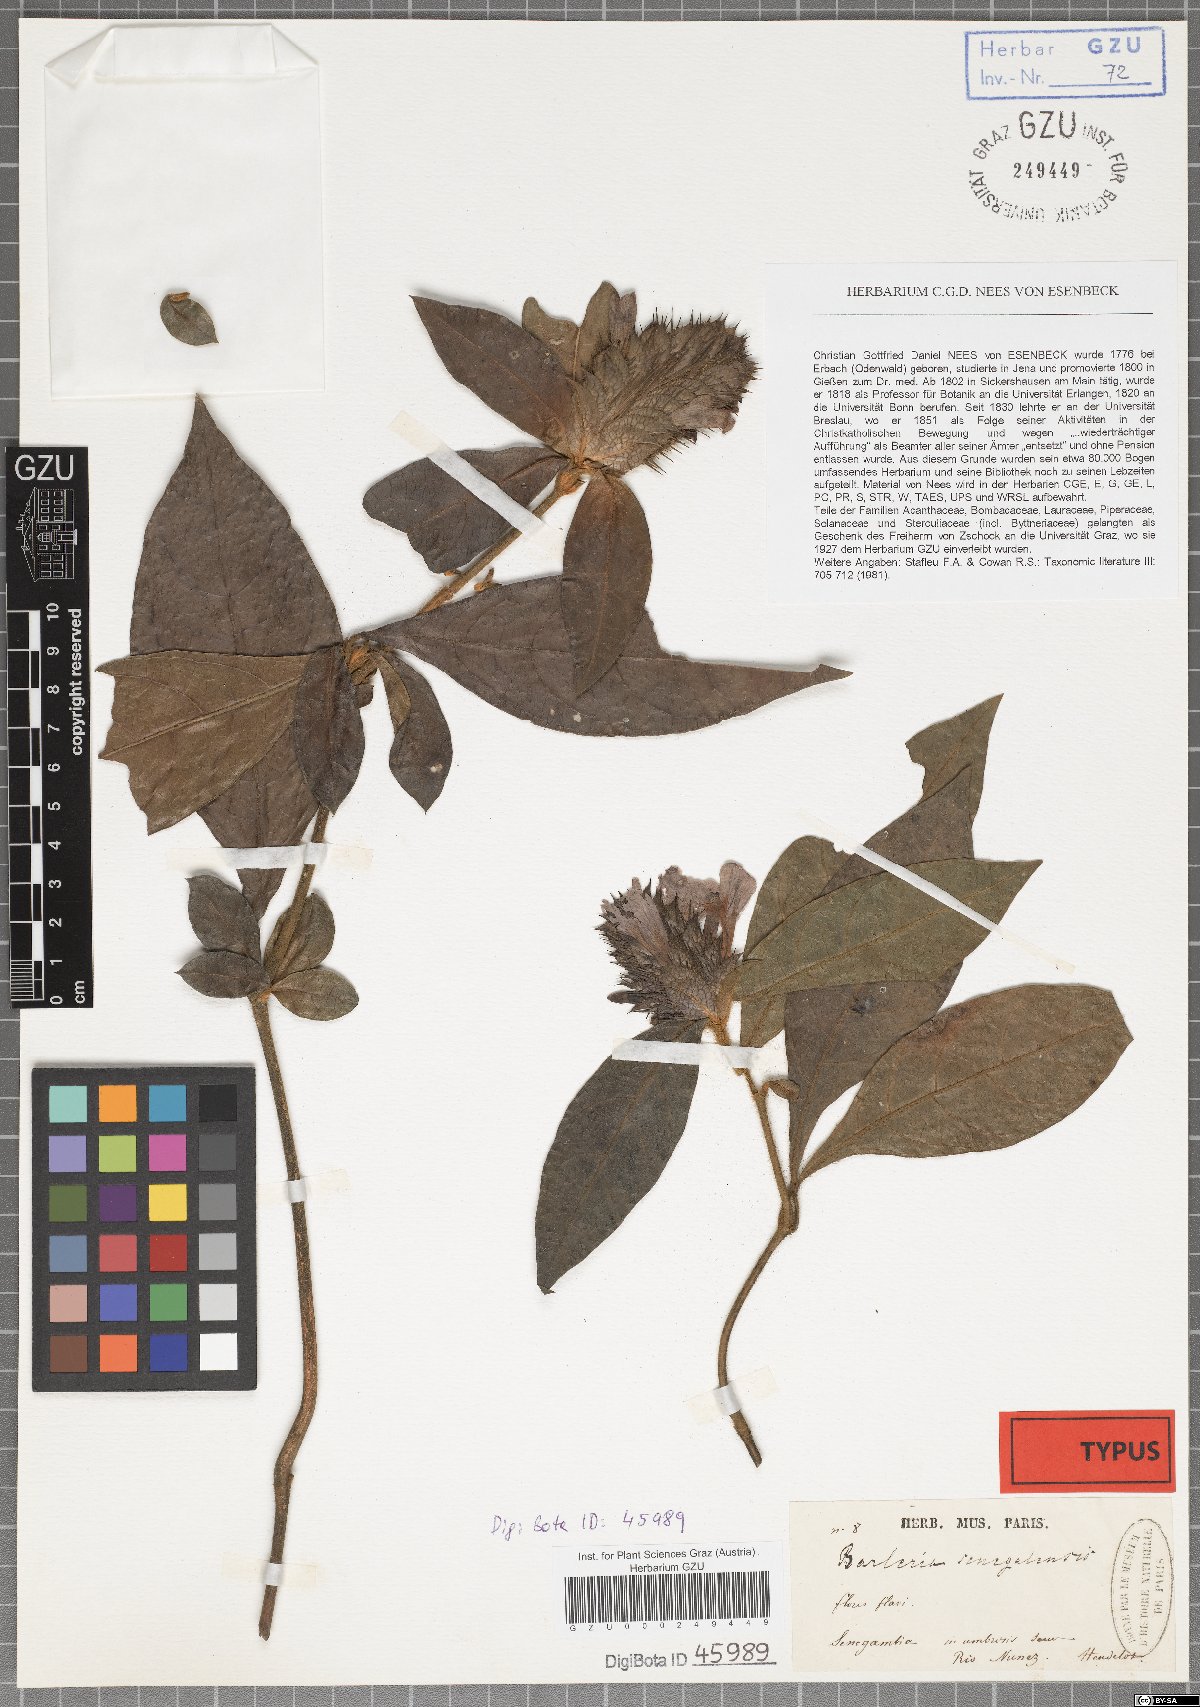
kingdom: Plantae
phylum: Tracheophyta
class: Magnoliopsida
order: Lamiales
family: Acanthaceae
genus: Barleria
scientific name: Barleria oenotheroides
